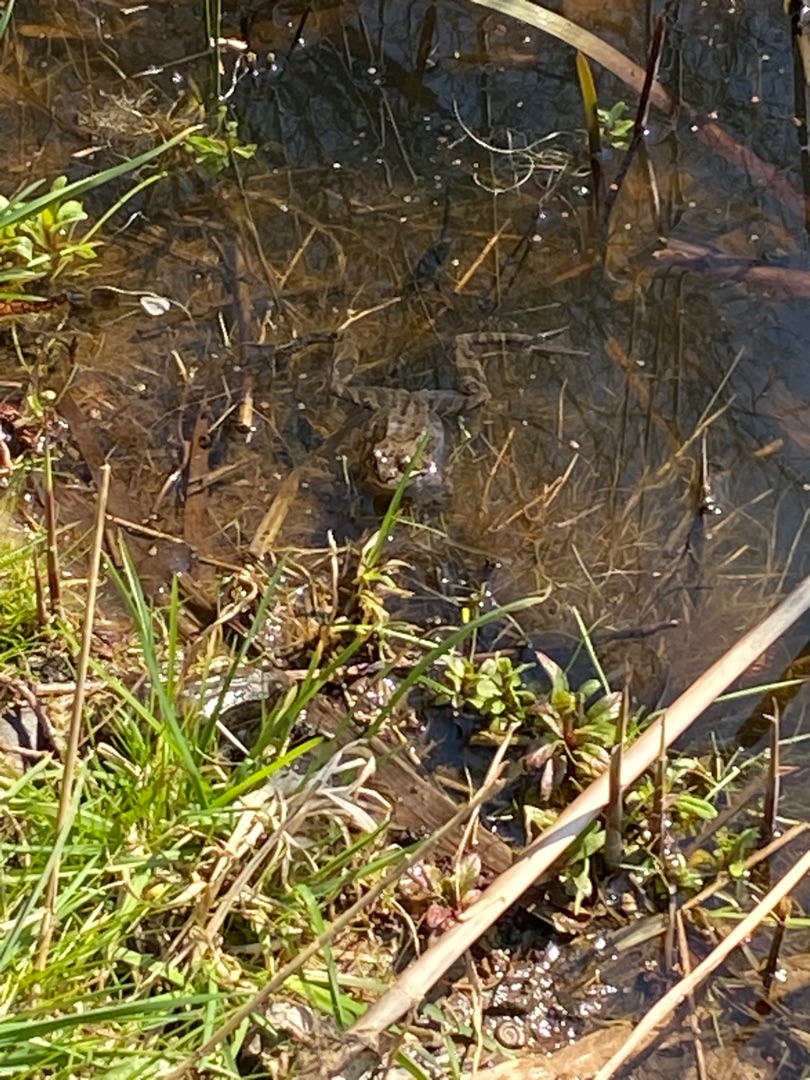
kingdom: Animalia
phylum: Chordata
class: Amphibia
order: Anura
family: Ranidae
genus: Rana
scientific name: Rana temporaria
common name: Butsnudet frø
